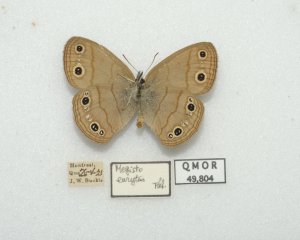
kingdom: Animalia
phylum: Arthropoda
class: Insecta
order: Lepidoptera
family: Nymphalidae
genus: Euptychia
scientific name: Euptychia cymela
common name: Little Wood Satyr
